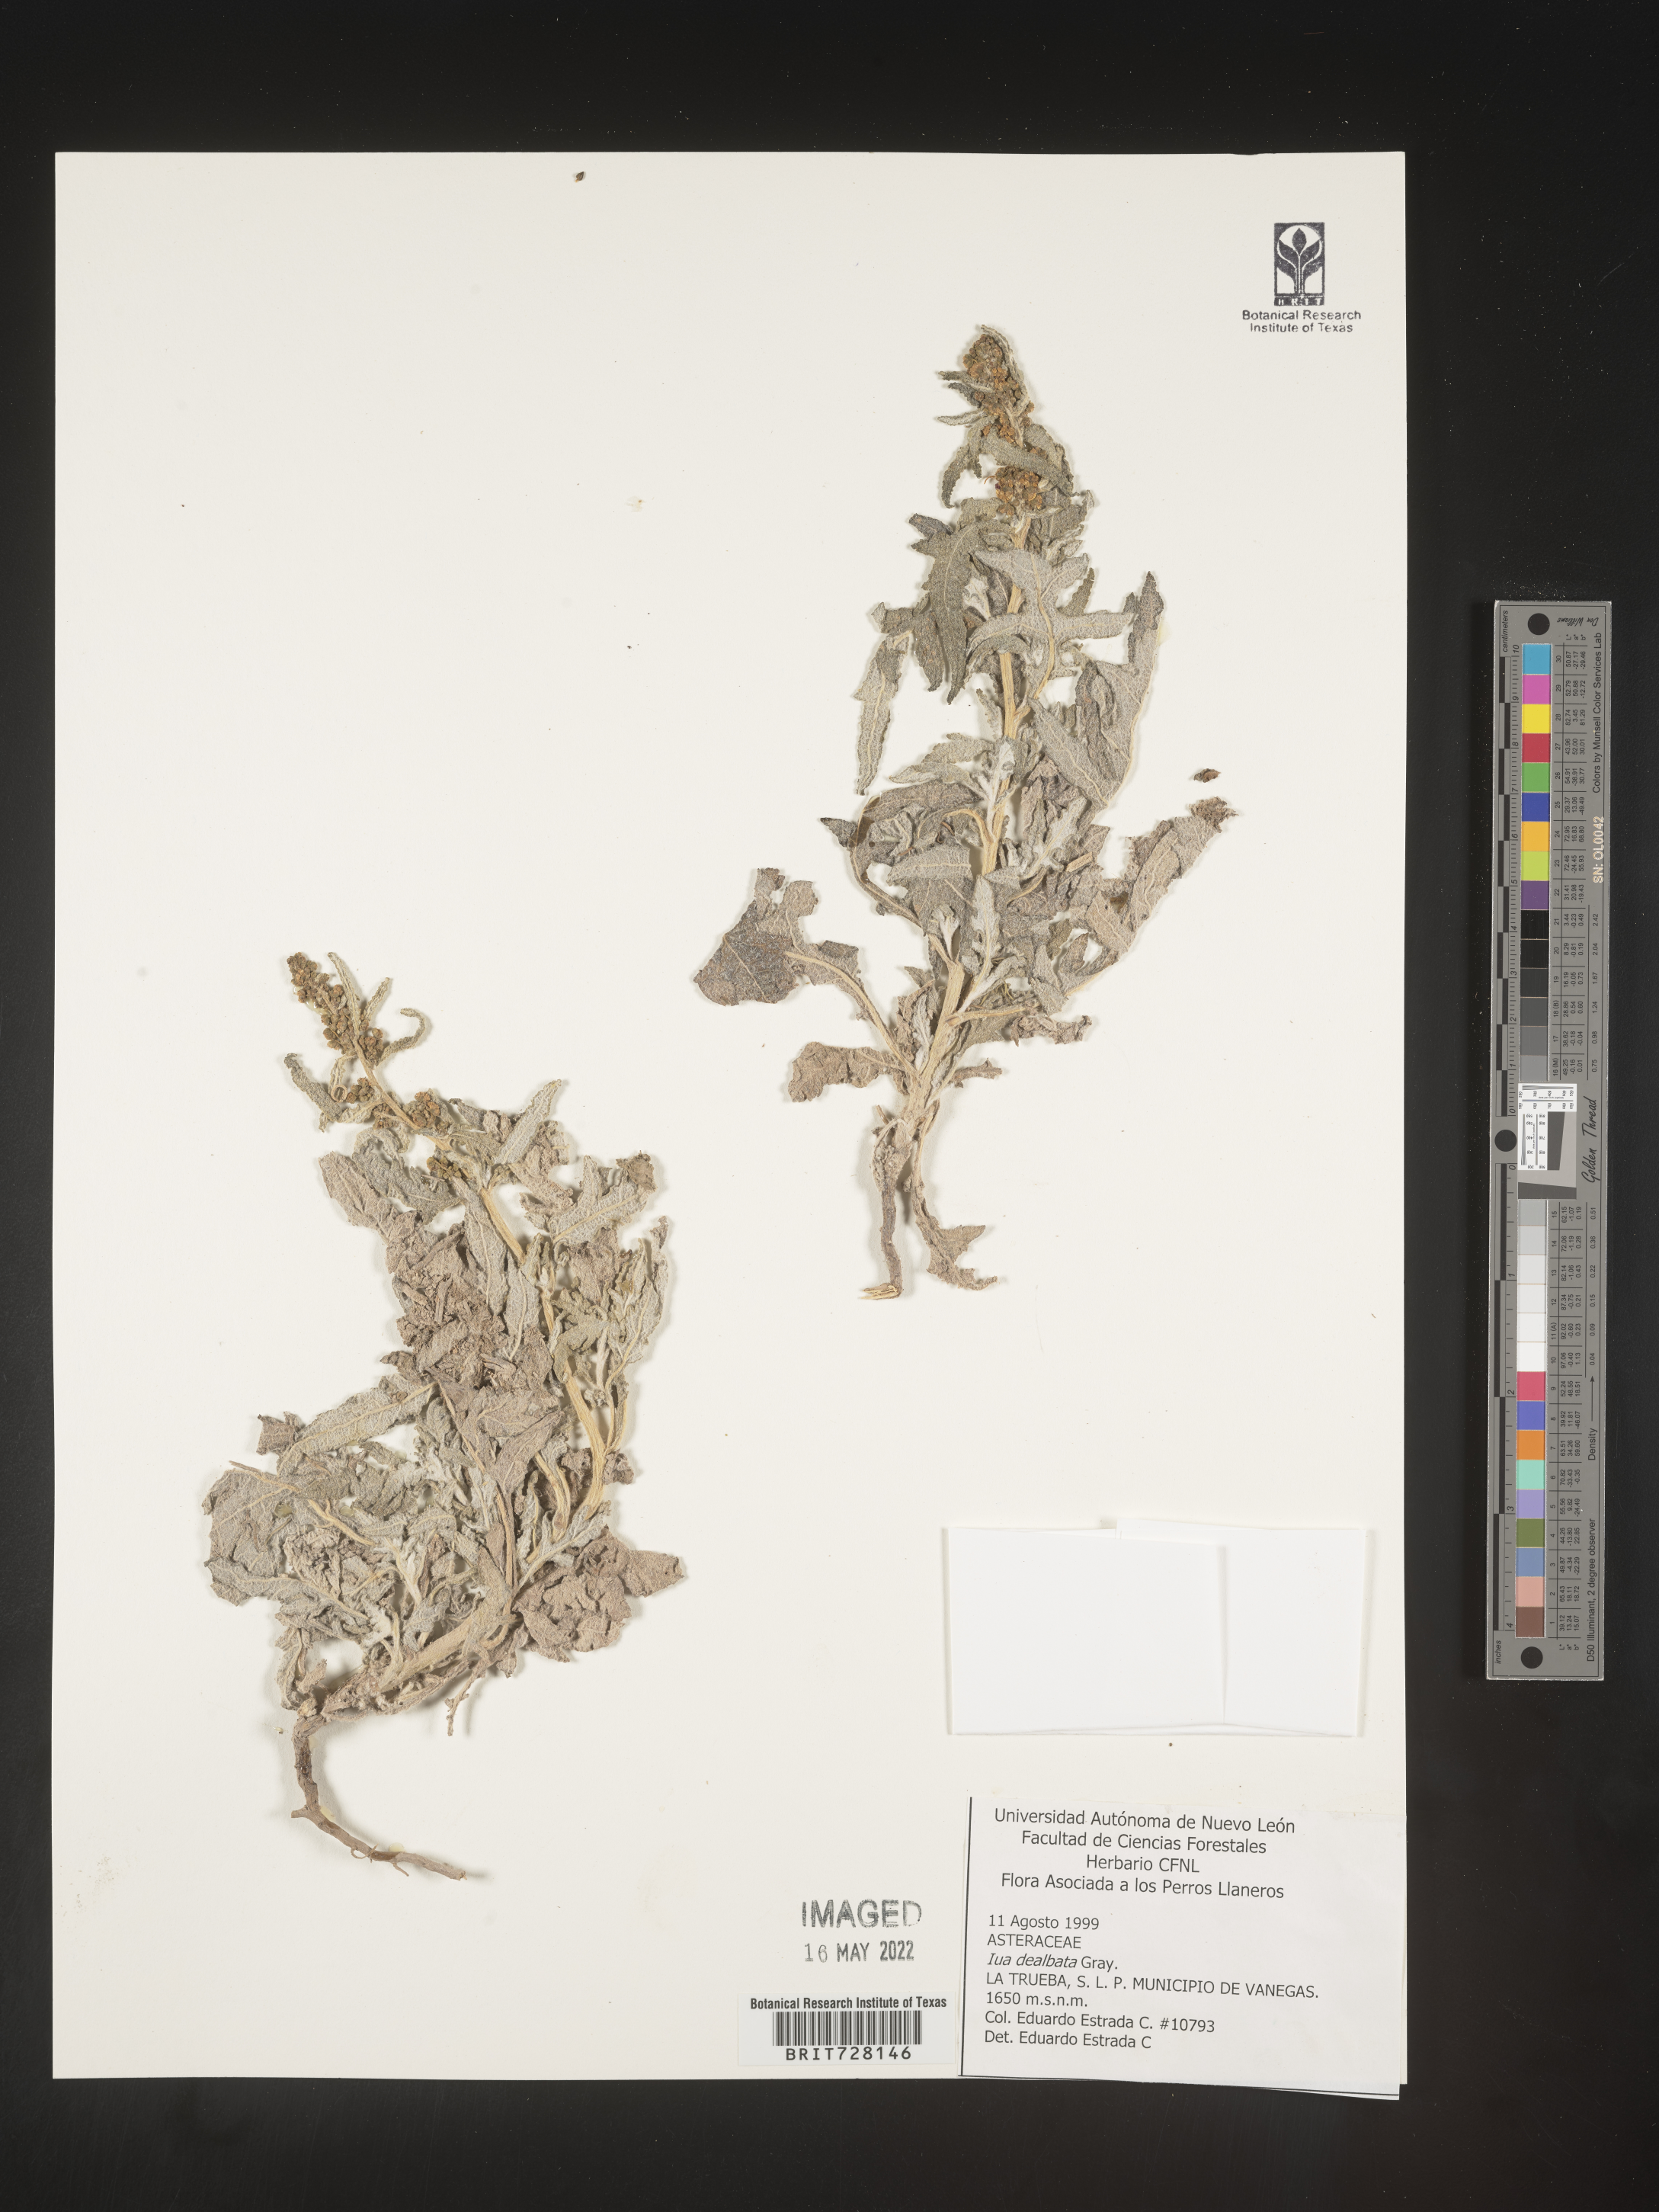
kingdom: Plantae
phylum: Tracheophyta
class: Magnoliopsida
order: Asterales
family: Asteraceae
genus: Iva
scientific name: Iva
